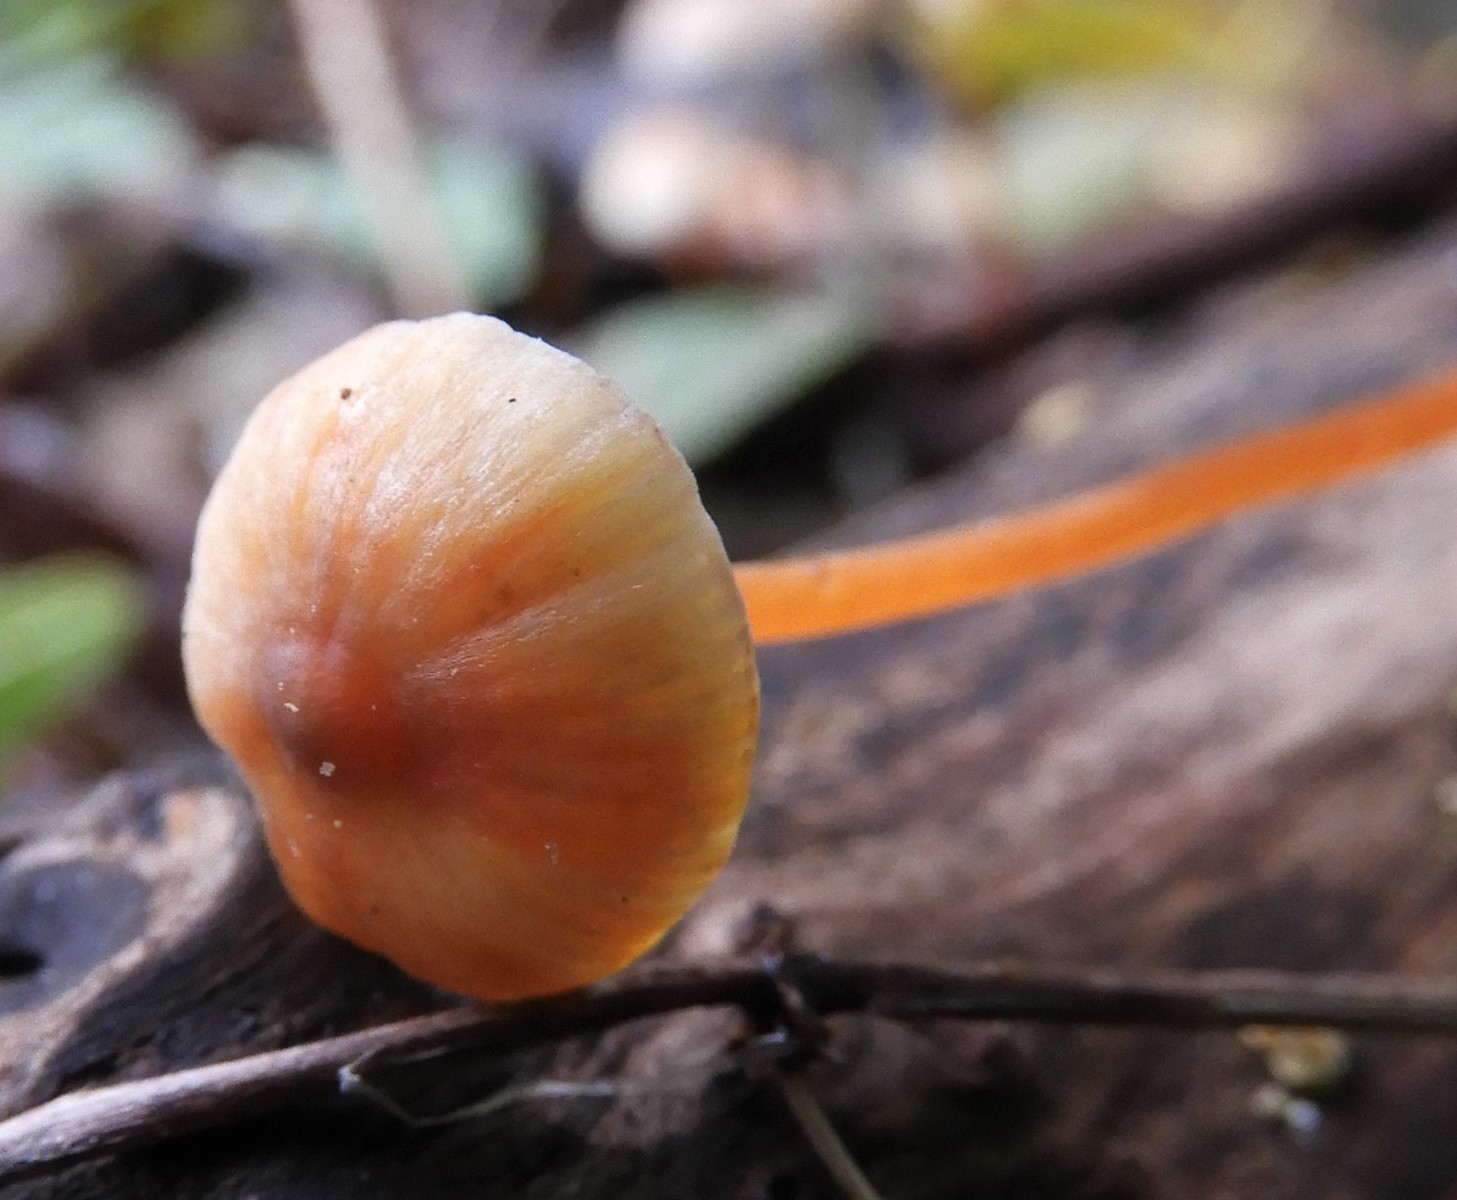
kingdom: Fungi
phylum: Basidiomycota
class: Agaricomycetes
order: Agaricales
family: Mycenaceae
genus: Mycena
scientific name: Mycena crocata
